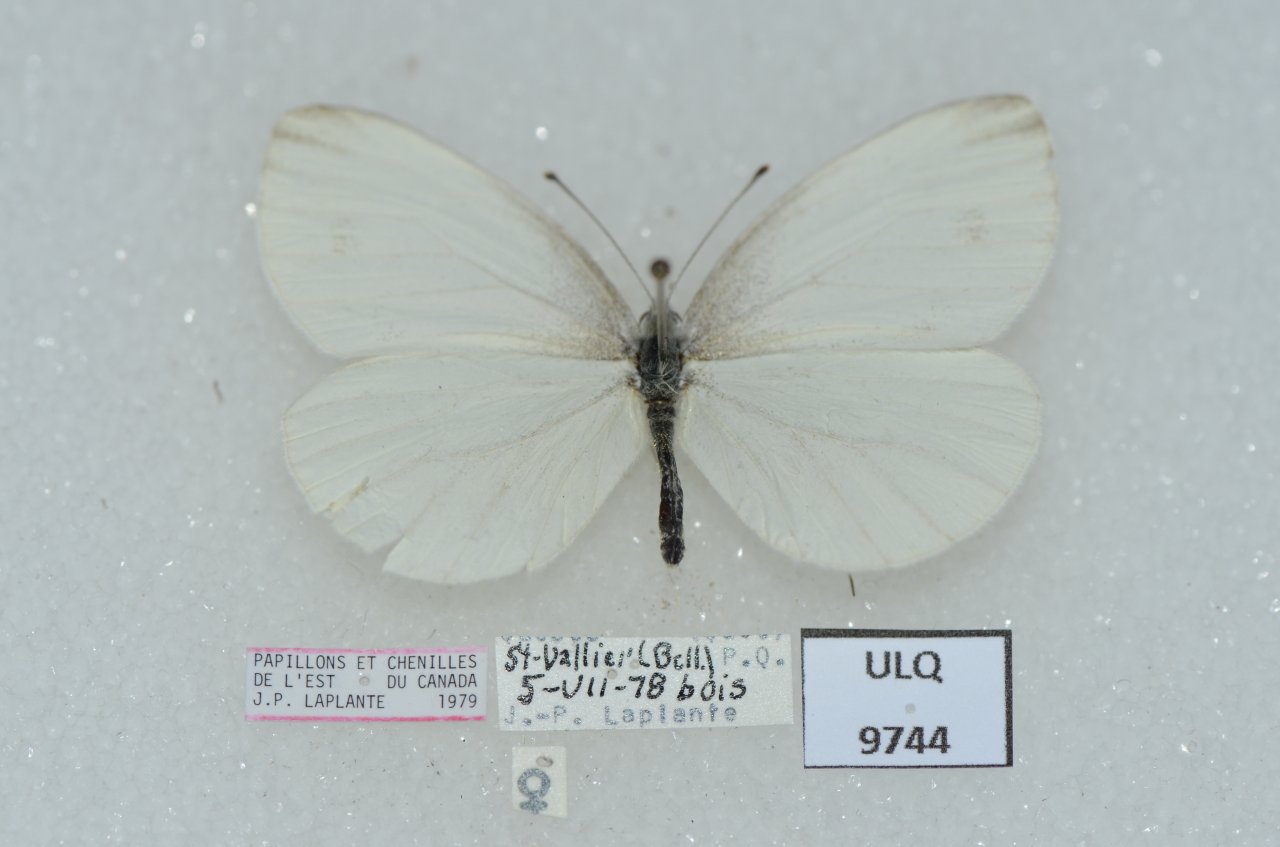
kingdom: Animalia
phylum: Arthropoda
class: Insecta
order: Lepidoptera
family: Pieridae
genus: Pieris
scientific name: Pieris oleracea
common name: Mustard White
